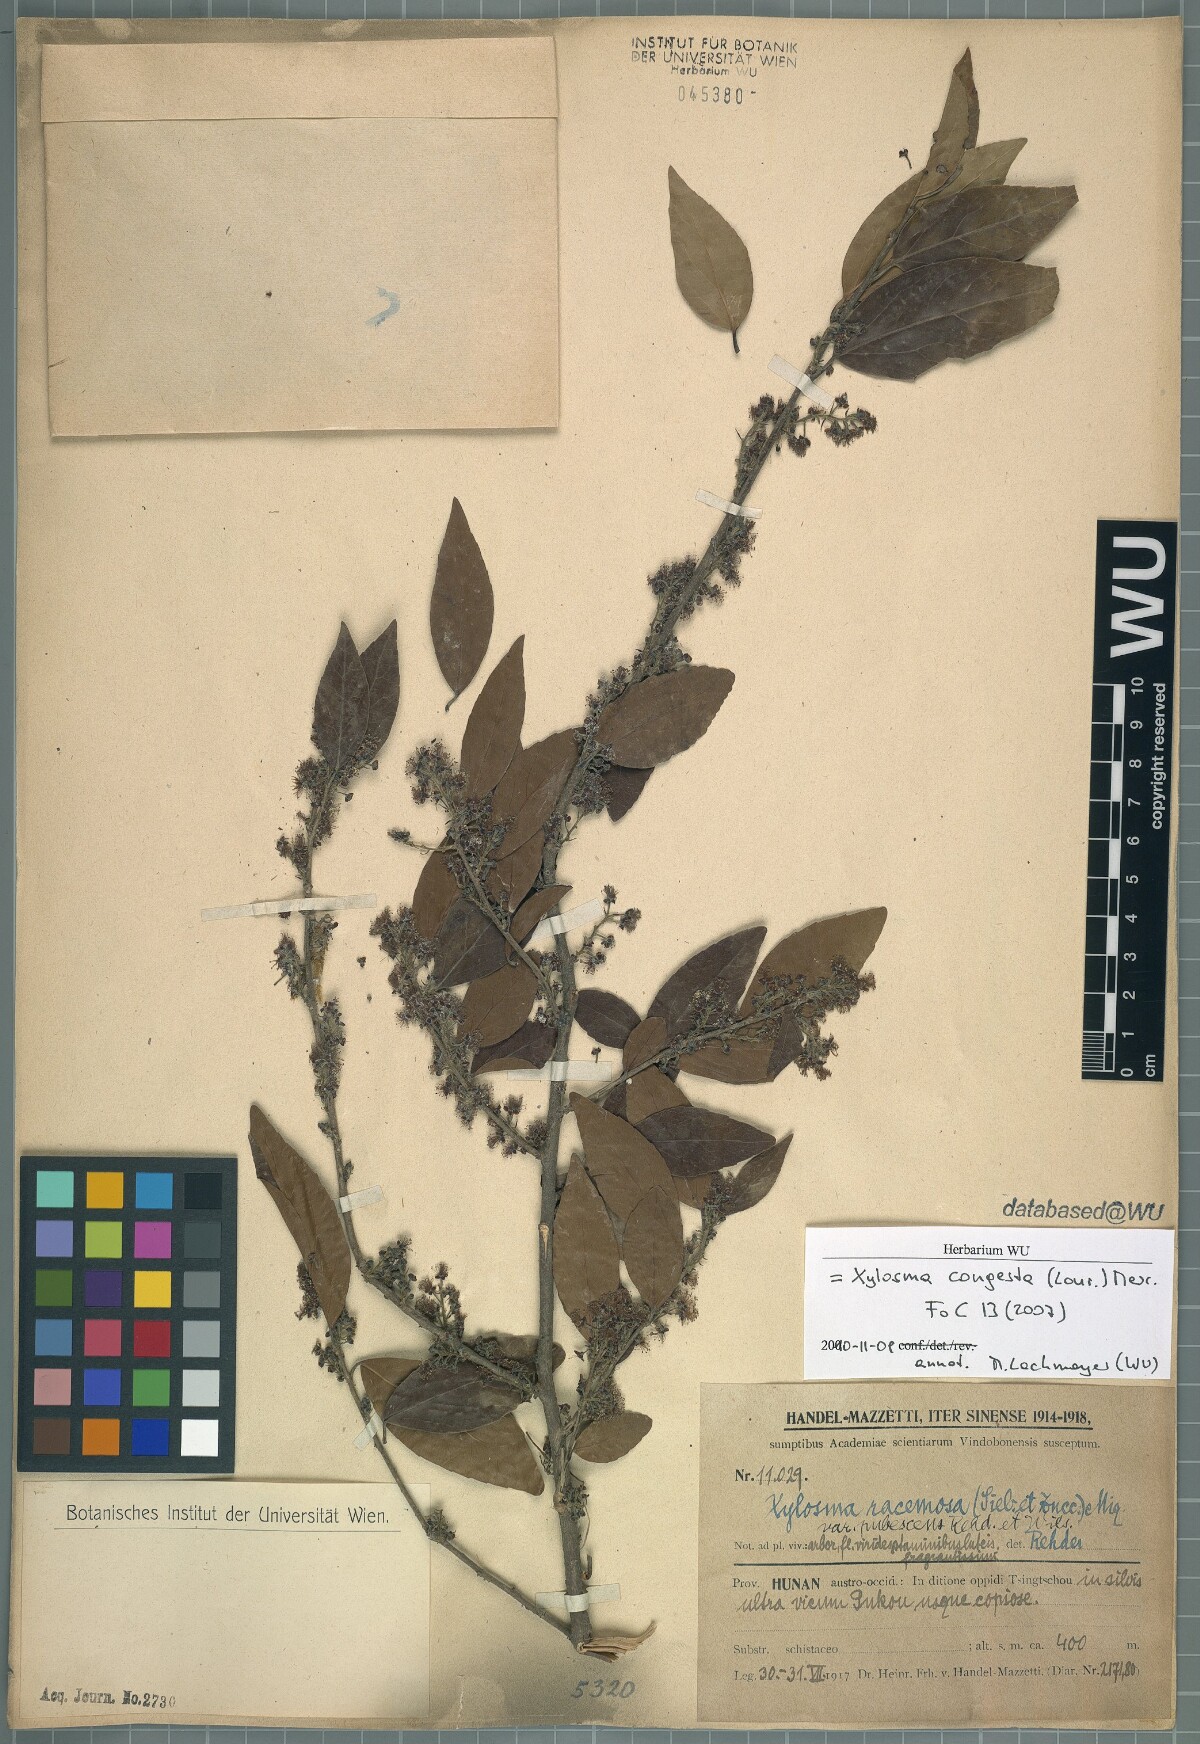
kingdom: Plantae
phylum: Tracheophyta
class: Magnoliopsida
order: Malpighiales
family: Salicaceae
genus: Xylosma
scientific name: Xylosma racemosum
